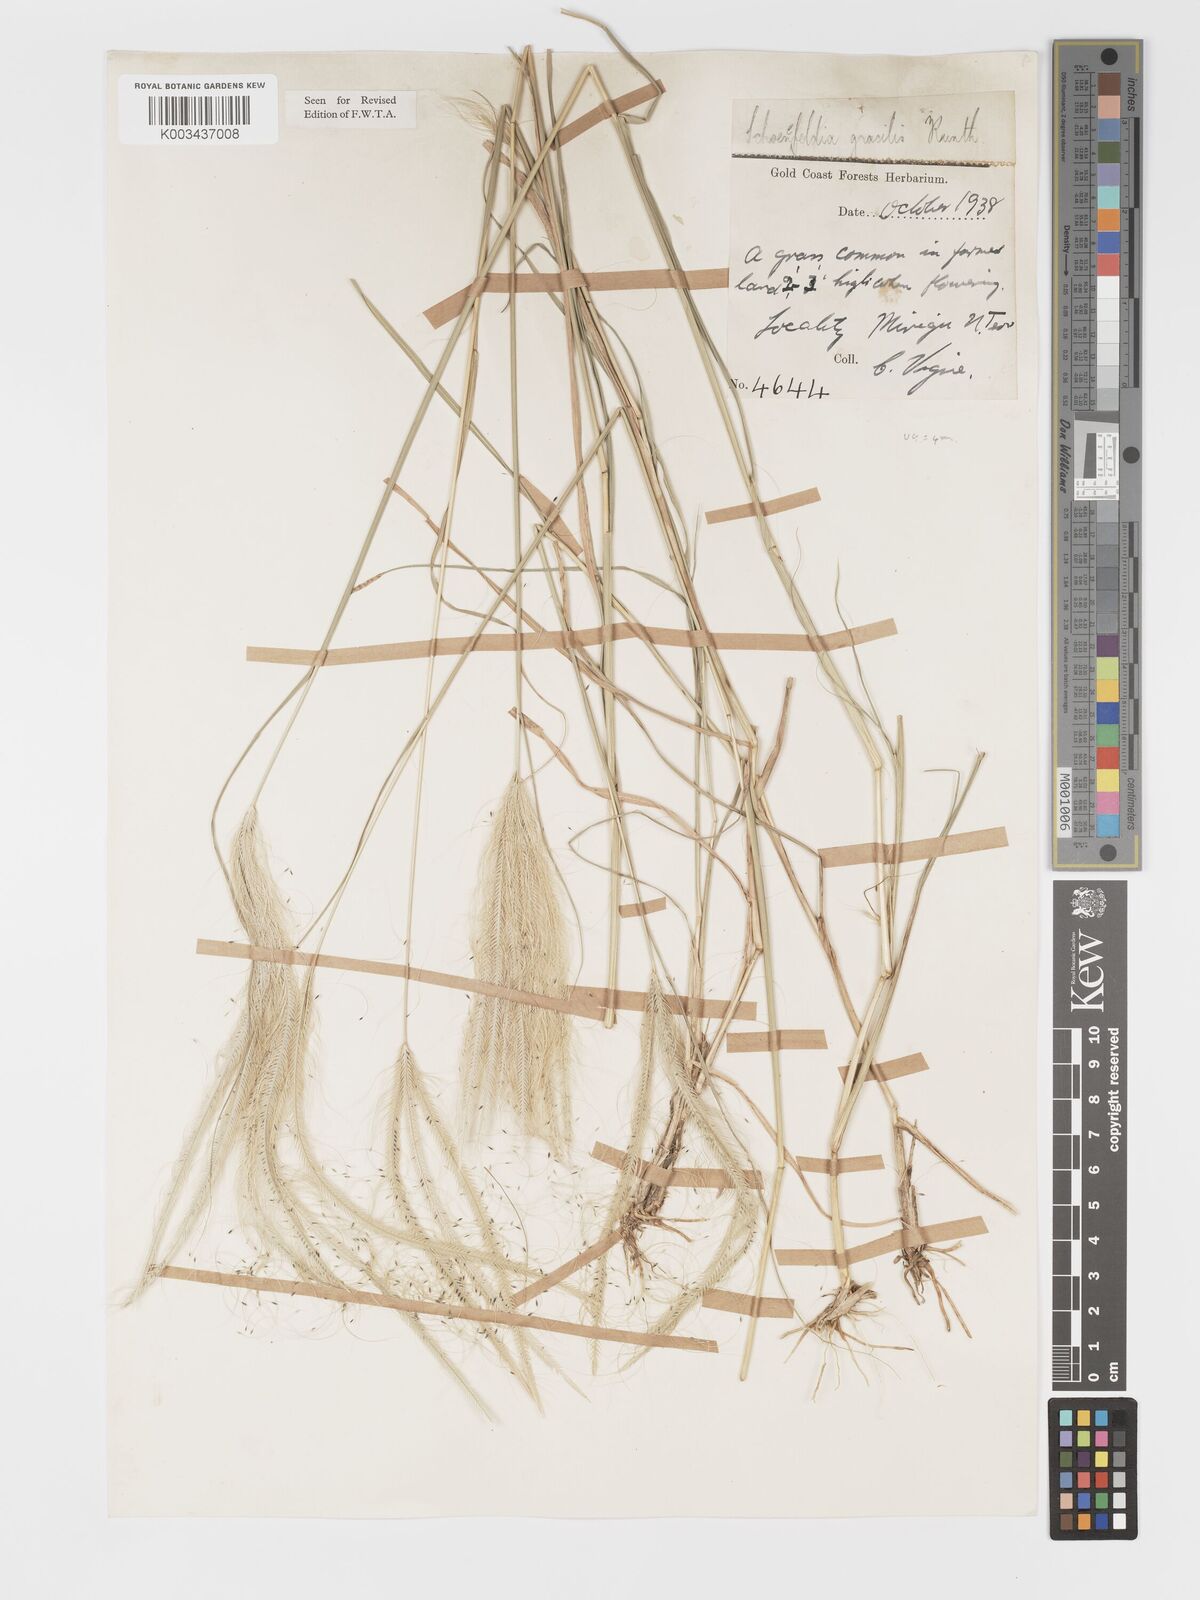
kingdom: Plantae
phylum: Tracheophyta
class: Liliopsida
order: Poales
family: Poaceae
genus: Schoenefeldia
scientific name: Schoenefeldia gracilis
